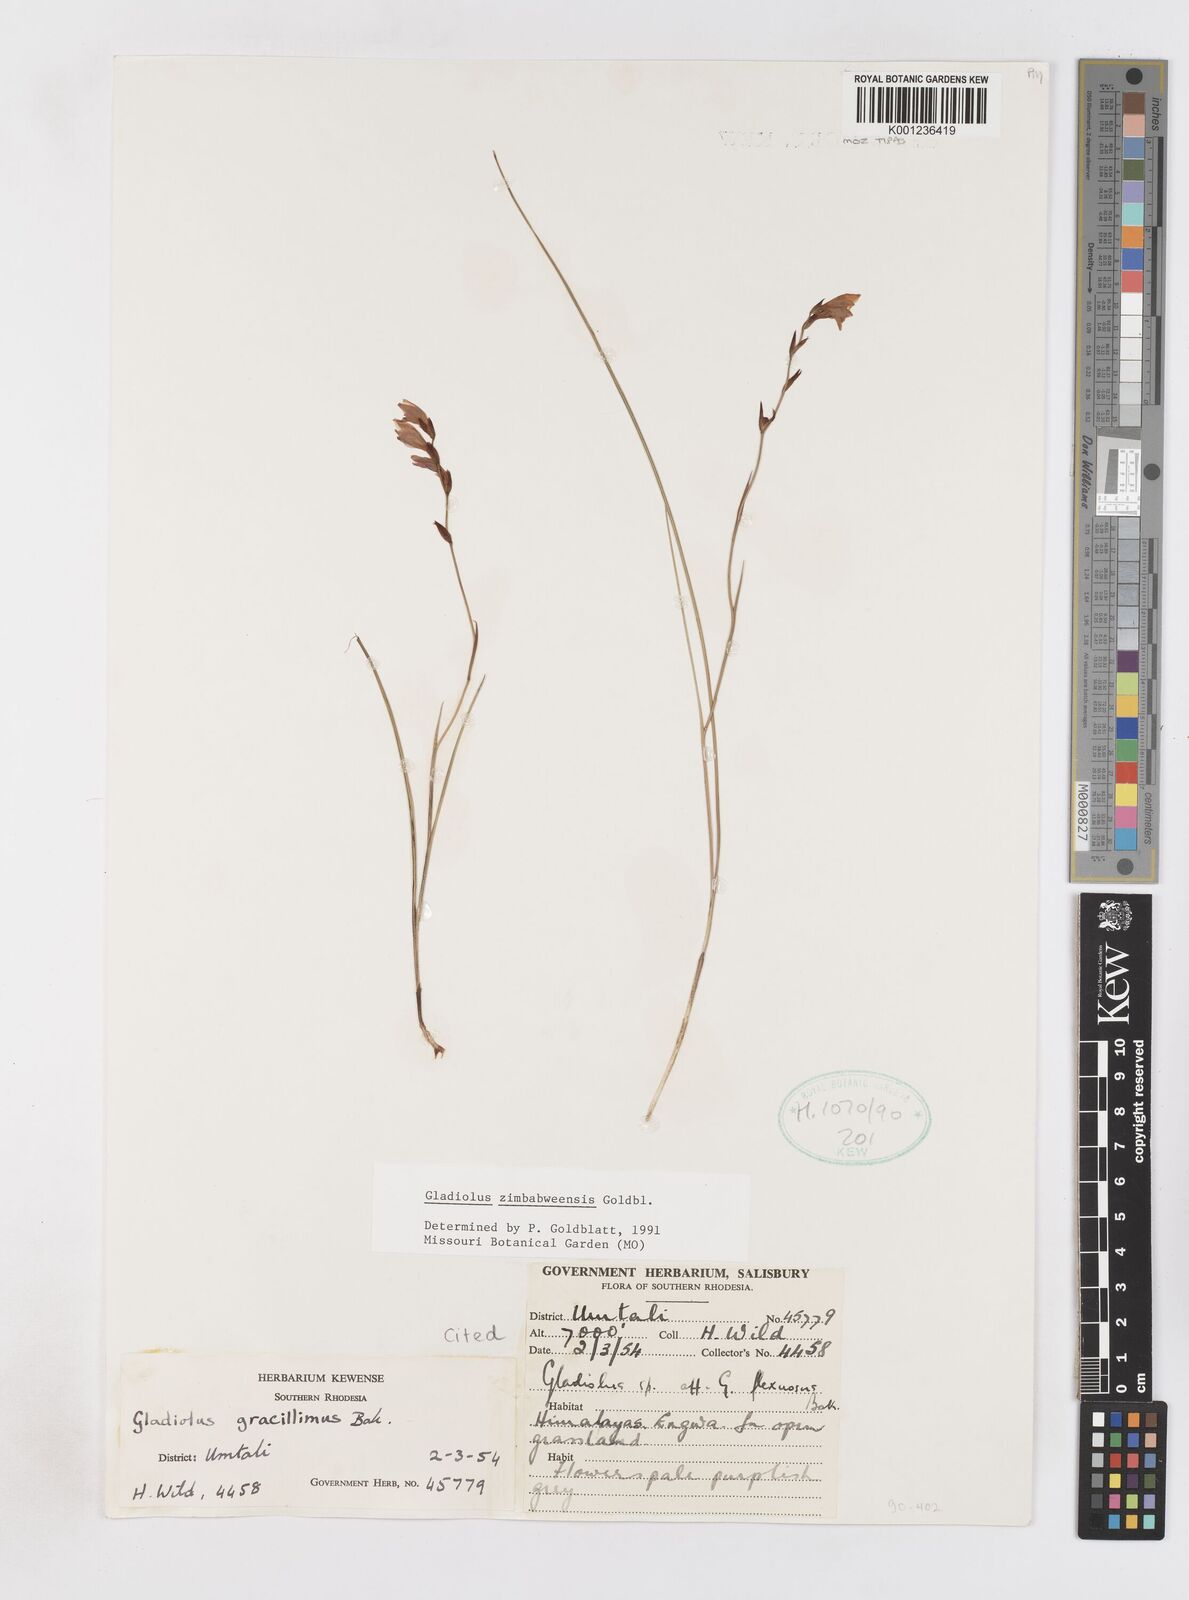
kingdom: Plantae
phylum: Tracheophyta
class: Liliopsida
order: Asparagales
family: Iridaceae
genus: Gladiolus
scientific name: Gladiolus zimbabweensis
